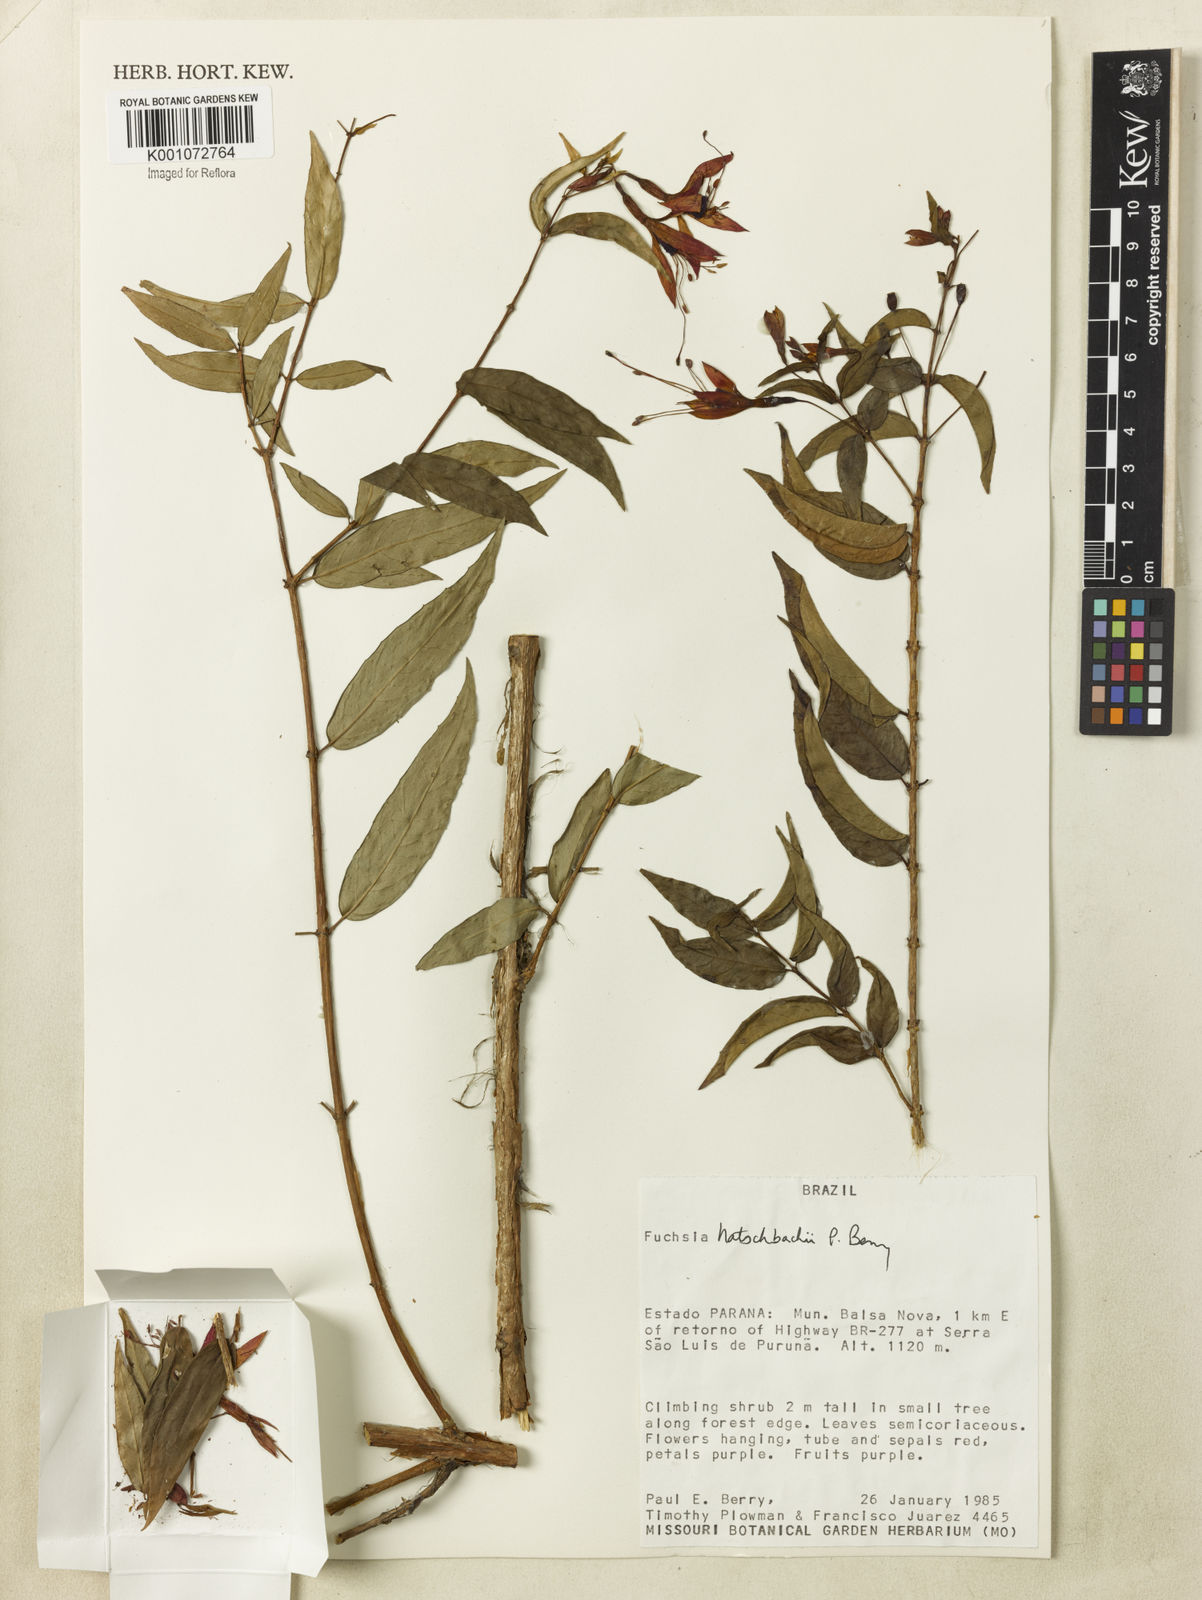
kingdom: Plantae
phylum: Tracheophyta
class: Magnoliopsida
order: Myrtales
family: Onagraceae
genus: Fuchsia
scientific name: Fuchsia hatschbachii
